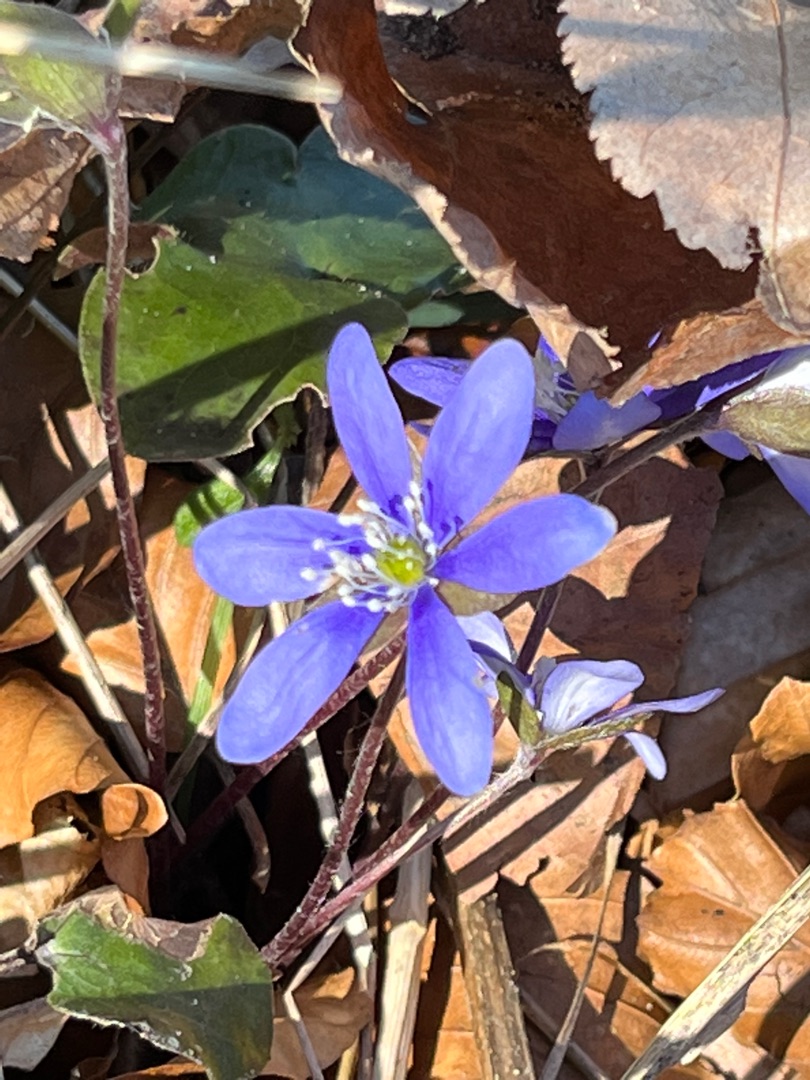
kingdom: Plantae
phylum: Tracheophyta
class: Magnoliopsida
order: Ranunculales
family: Ranunculaceae
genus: Hepatica
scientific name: Hepatica nobilis
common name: Blå anemone
